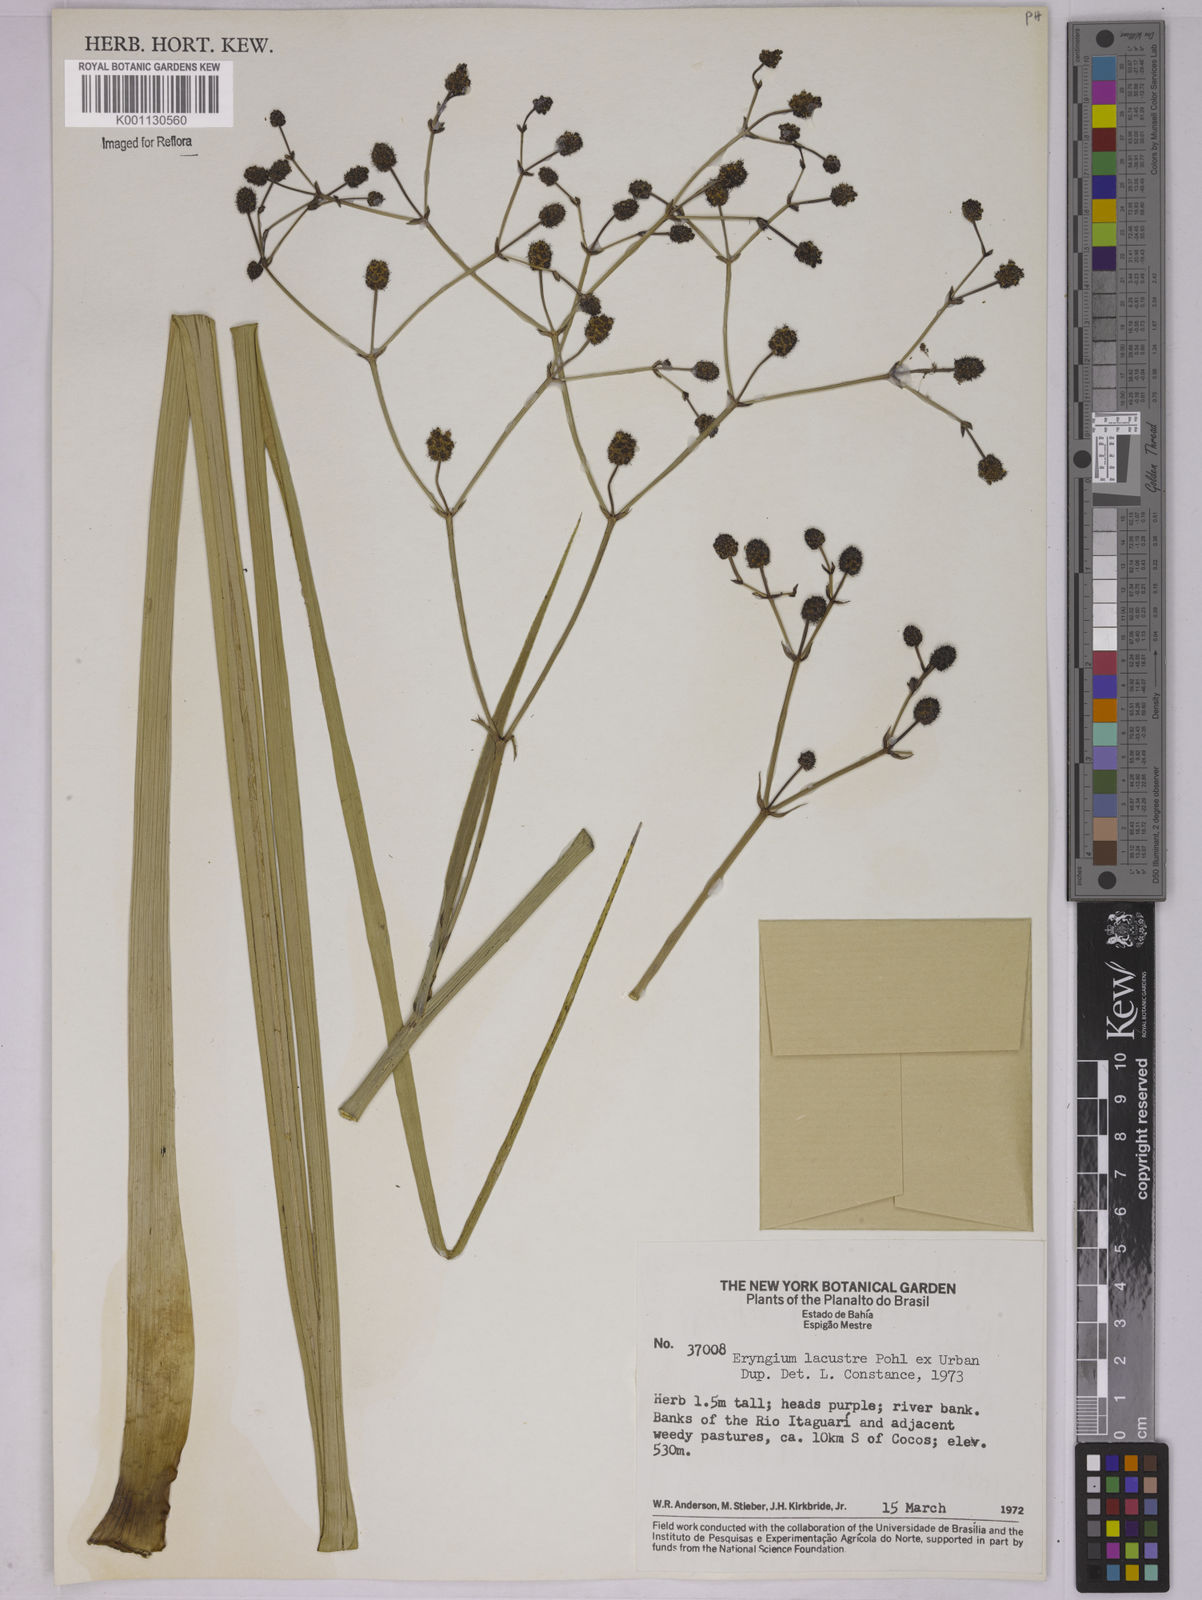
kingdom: Plantae
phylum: Tracheophyta
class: Magnoliopsida
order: Apiales
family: Apiaceae
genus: Eryngium
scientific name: Eryngium lacustre
